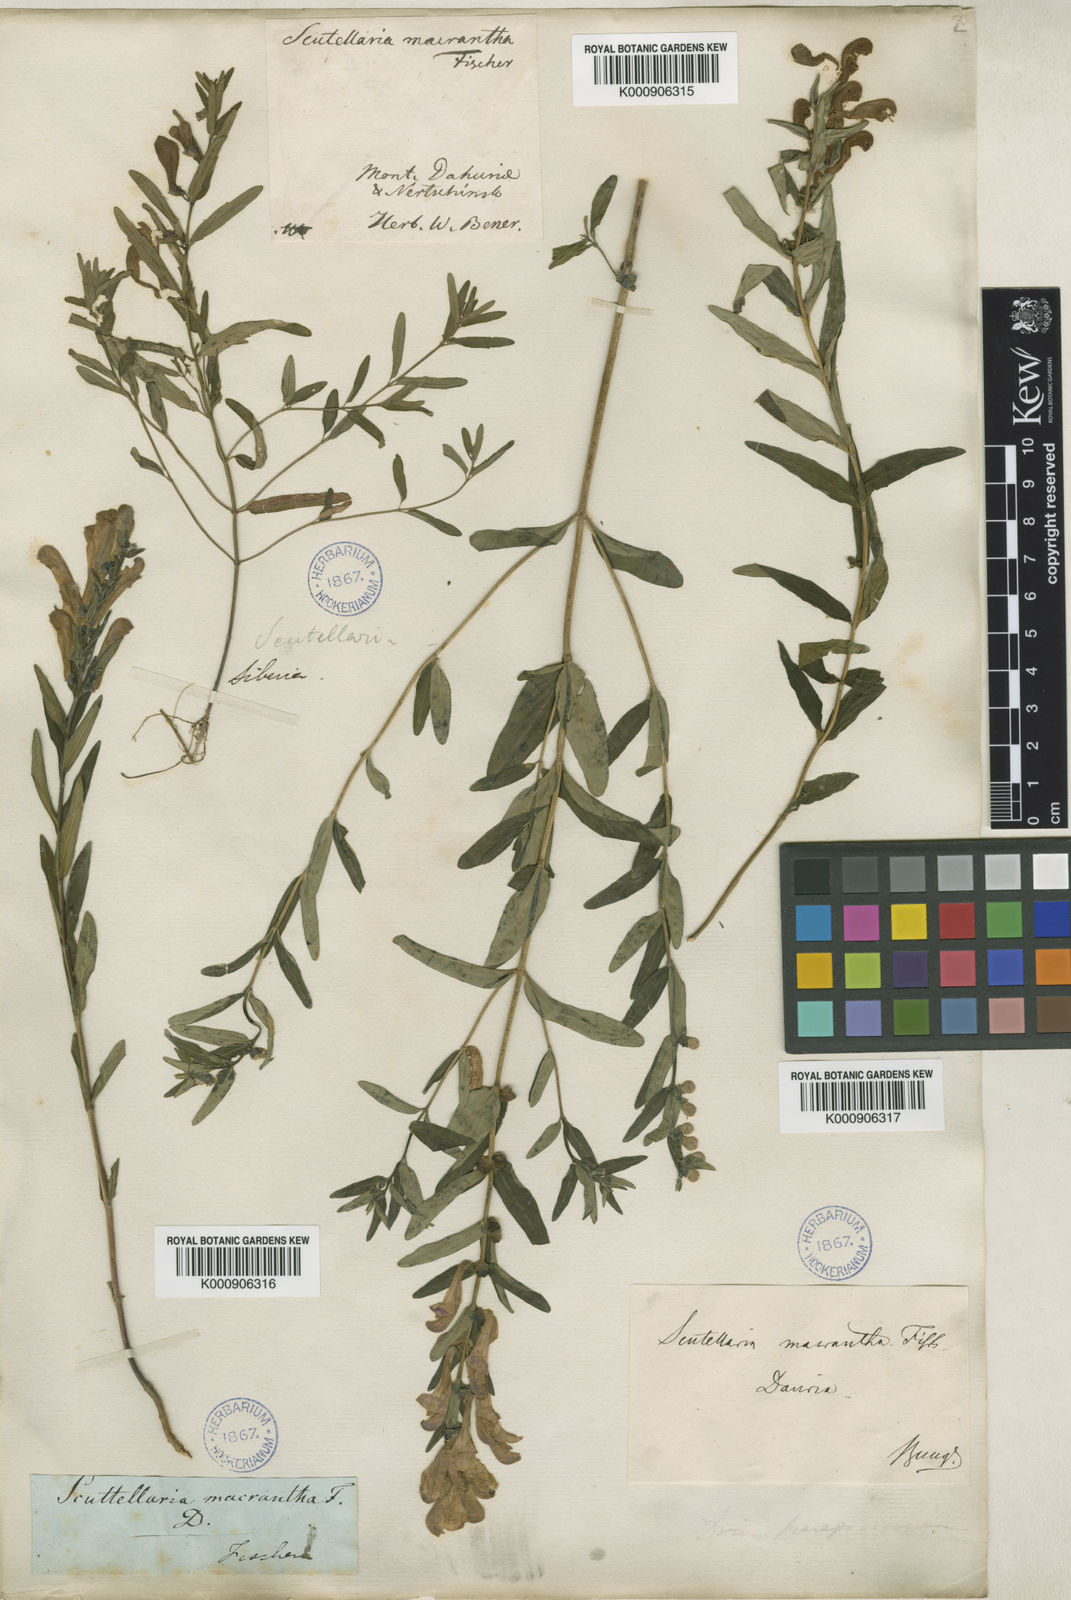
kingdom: Plantae
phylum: Tracheophyta
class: Magnoliopsida
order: Lamiales
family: Lamiaceae
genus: Scutellaria
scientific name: Scutellaria baicalensis
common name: Baikal skullcap
